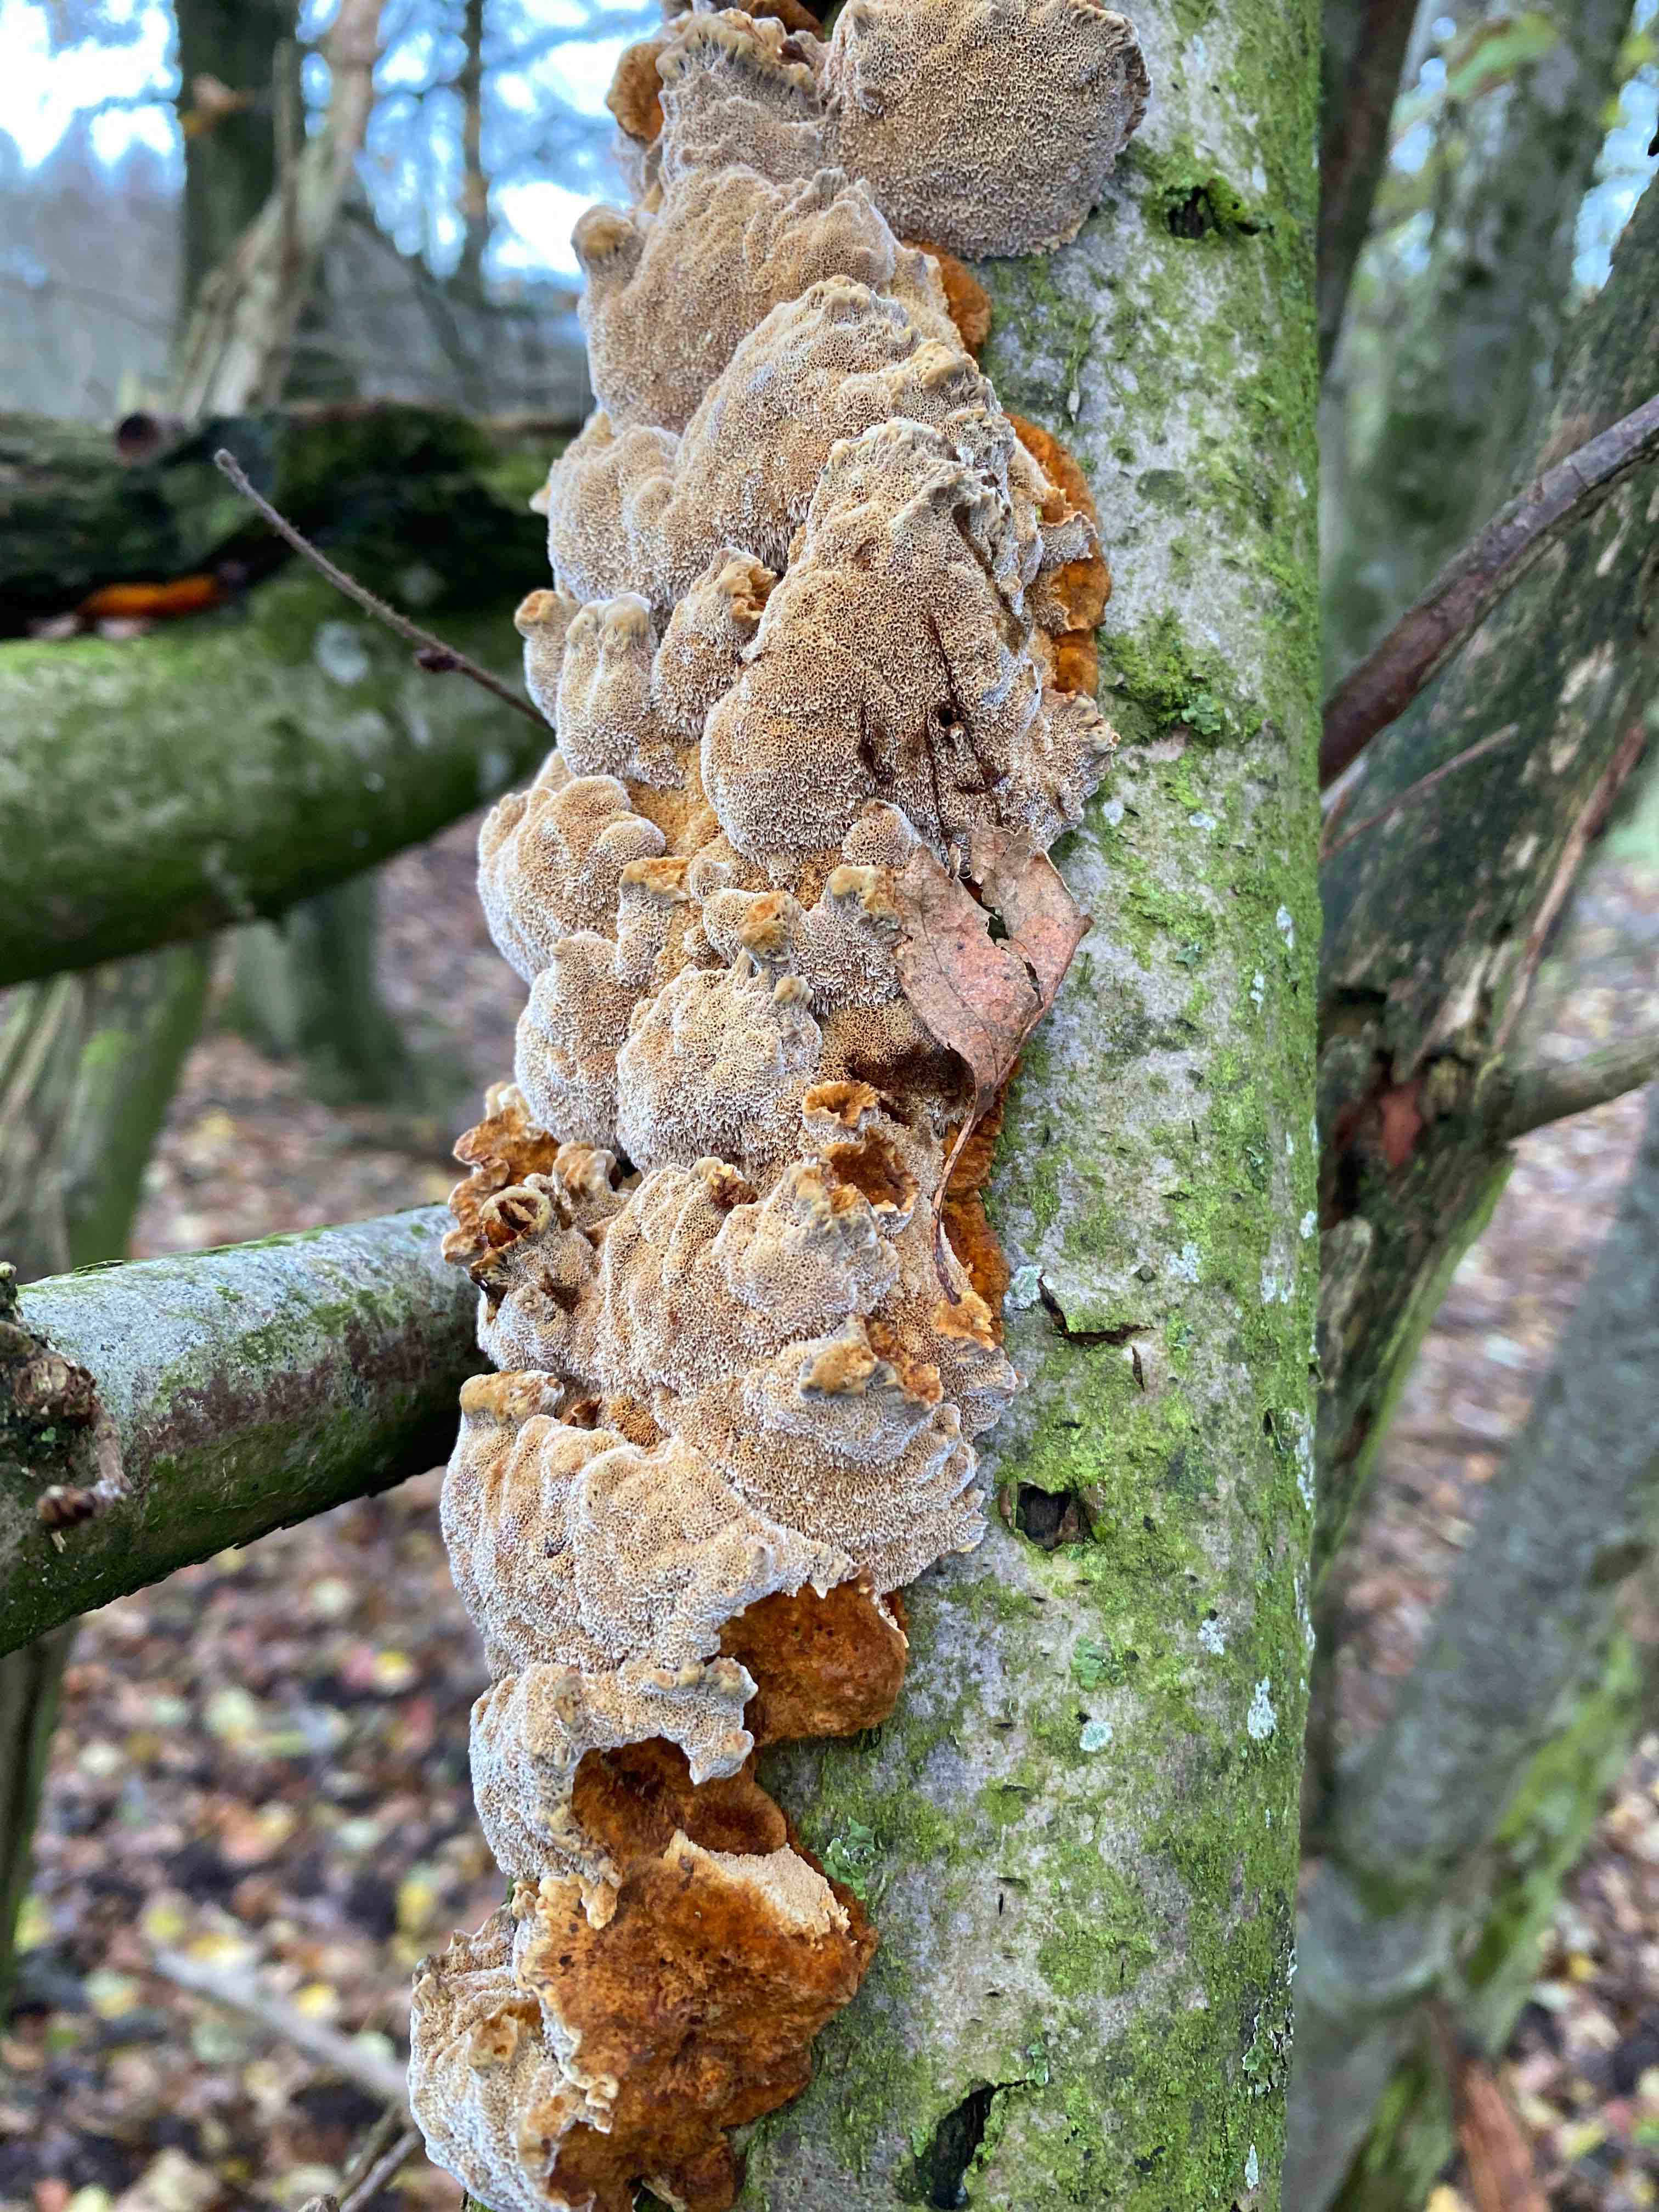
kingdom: Fungi
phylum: Basidiomycota
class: Agaricomycetes
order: Hymenochaetales
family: Hymenochaetaceae
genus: Xanthoporia
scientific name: Xanthoporia radiata
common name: elle-spejlporesvamp
